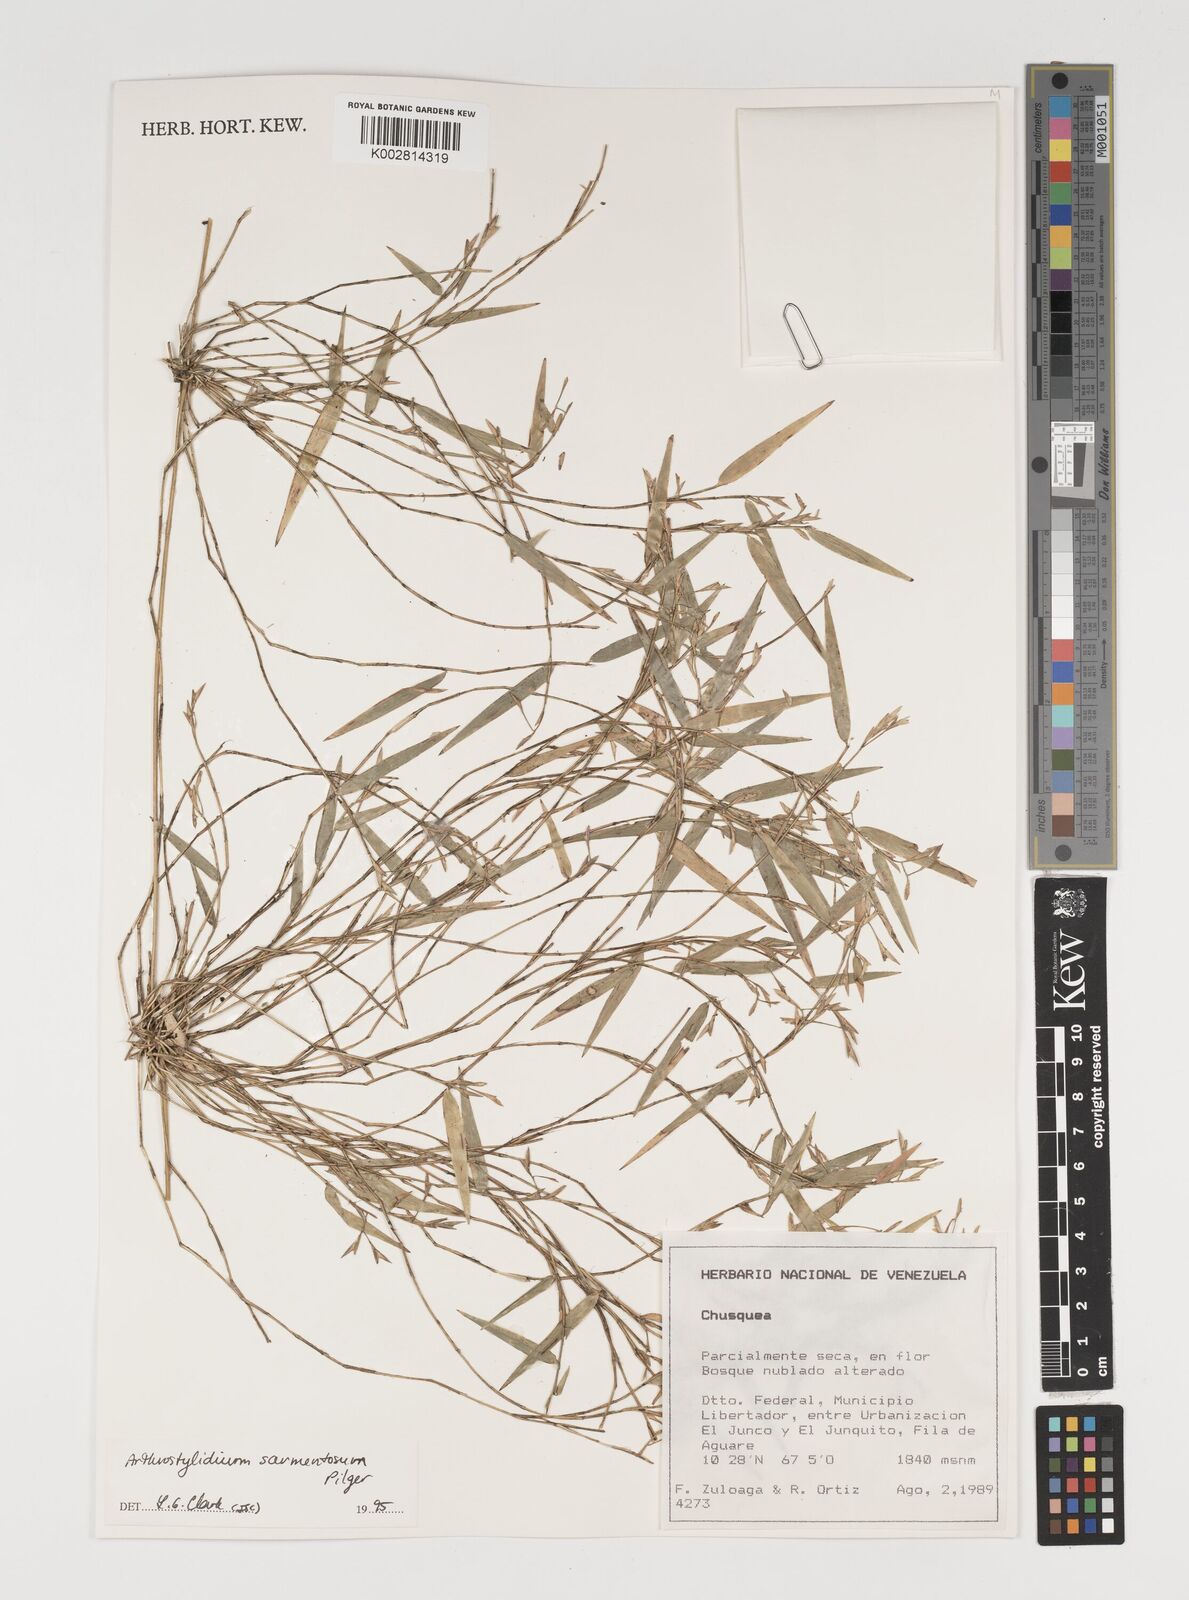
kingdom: Plantae
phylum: Tracheophyta
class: Liliopsida
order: Poales
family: Poaceae
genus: Arthrostylidium
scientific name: Arthrostylidium sarmentosum
